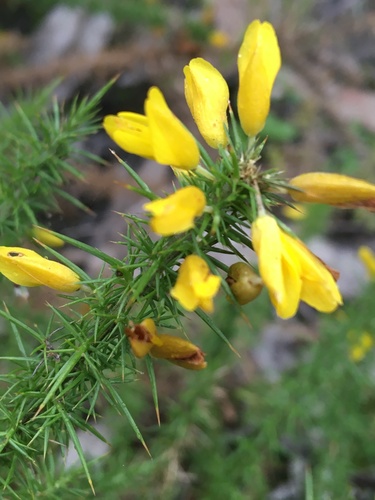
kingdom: Plantae
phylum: Tracheophyta
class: Magnoliopsida
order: Fabales
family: Fabaceae
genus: Ulex
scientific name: Ulex minor
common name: Dwarf gorse
